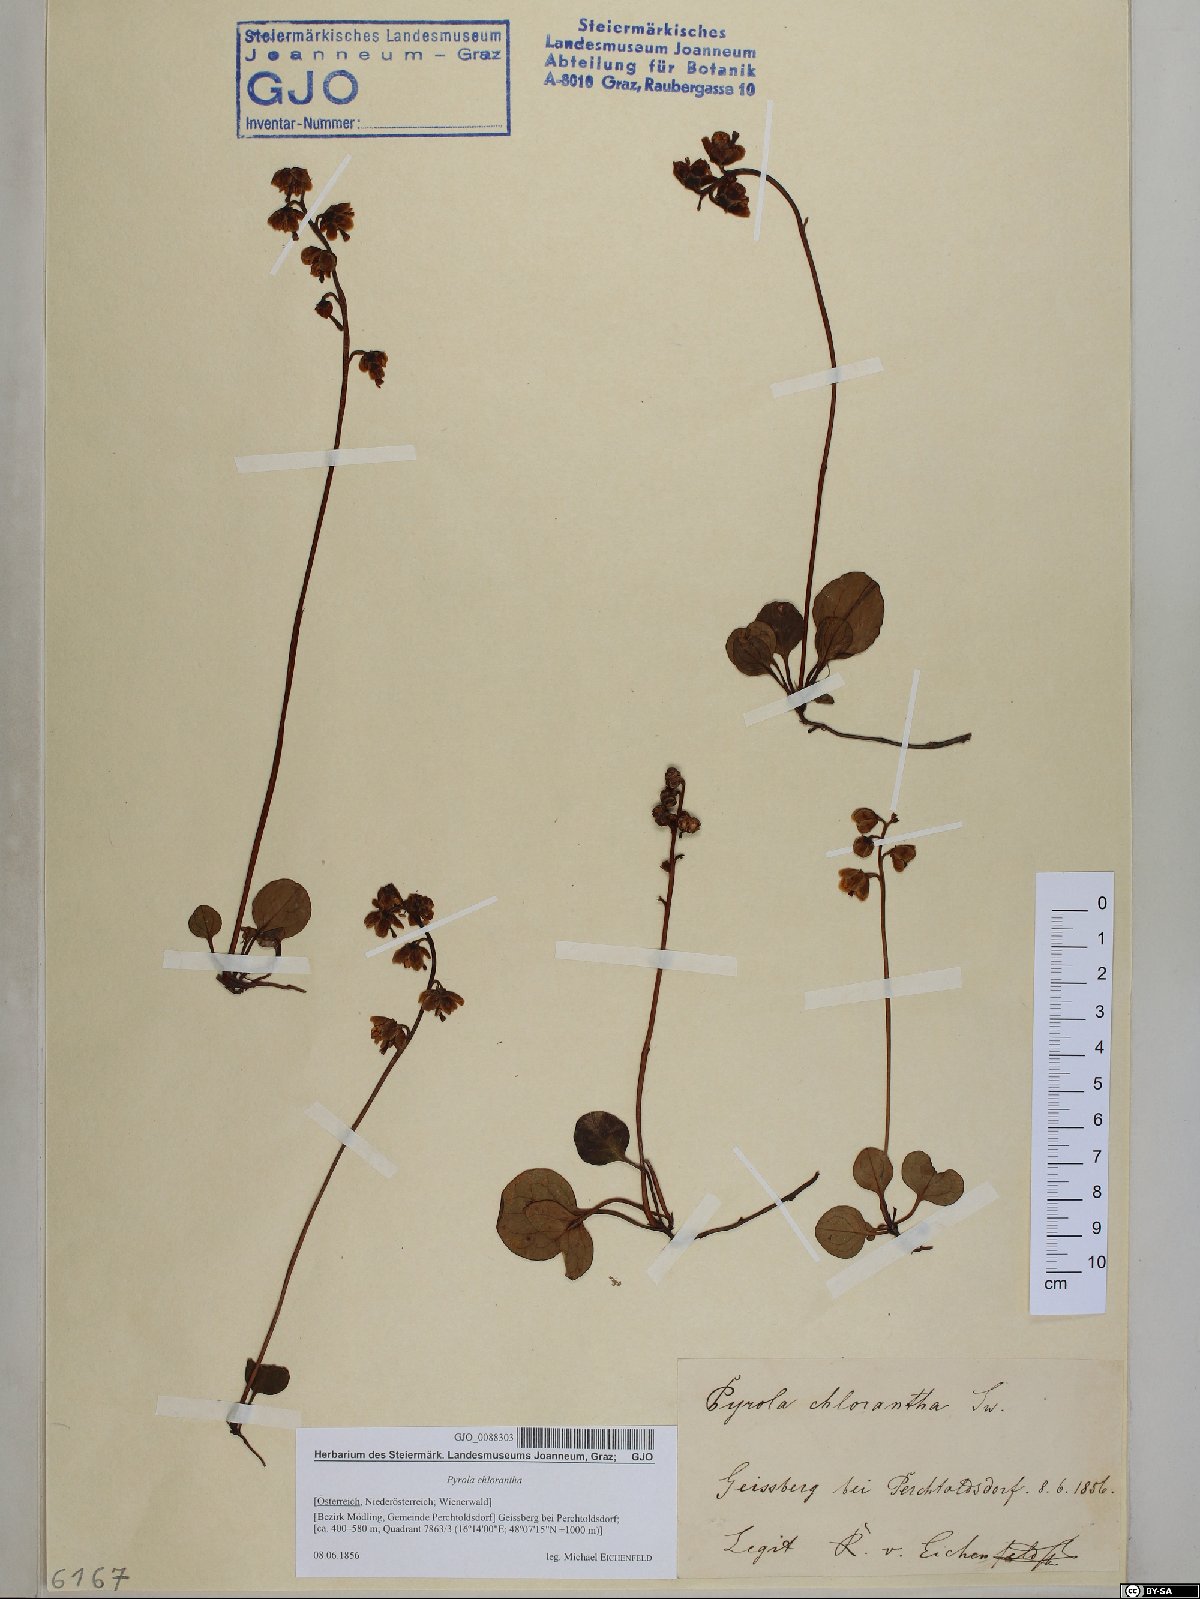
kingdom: Plantae
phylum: Tracheophyta
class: Magnoliopsida
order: Ericales
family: Ericaceae
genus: Pyrola
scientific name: Pyrola chlorantha
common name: Green wintergreen
